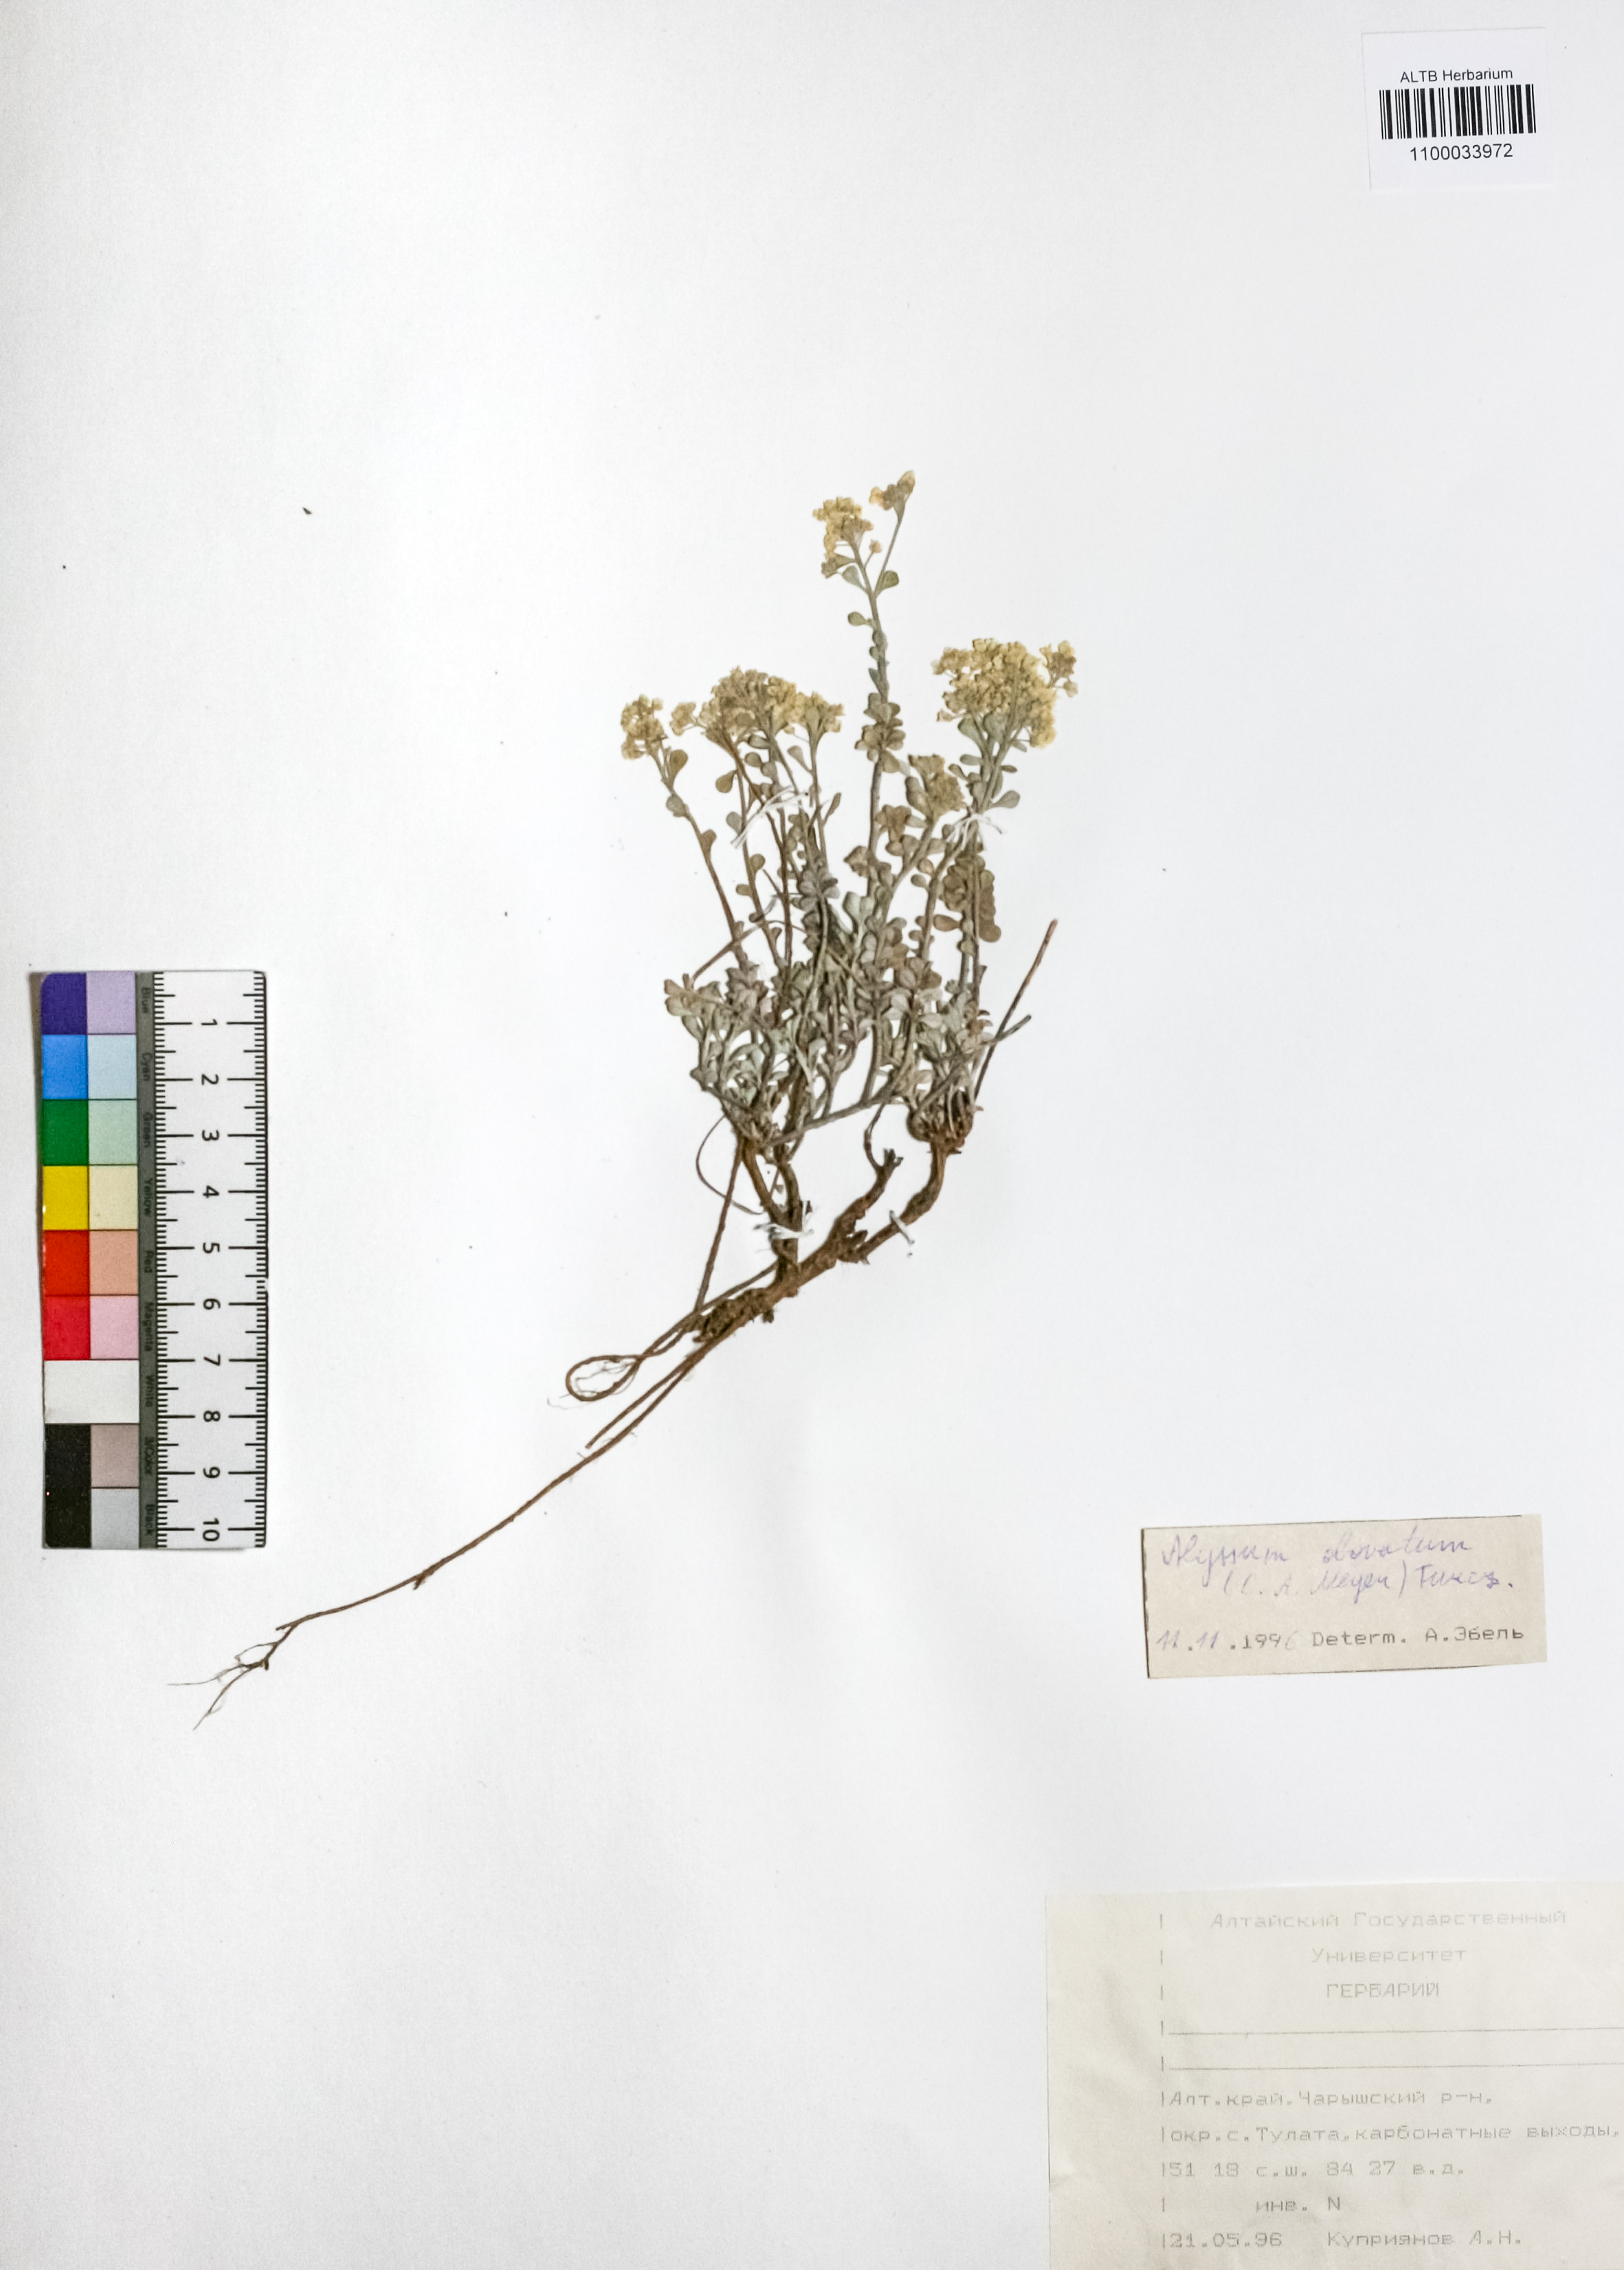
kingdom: Plantae
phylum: Tracheophyta
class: Magnoliopsida
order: Brassicales
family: Brassicaceae
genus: Odontarrhena
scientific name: Odontarrhena obovata
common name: American alyssum
